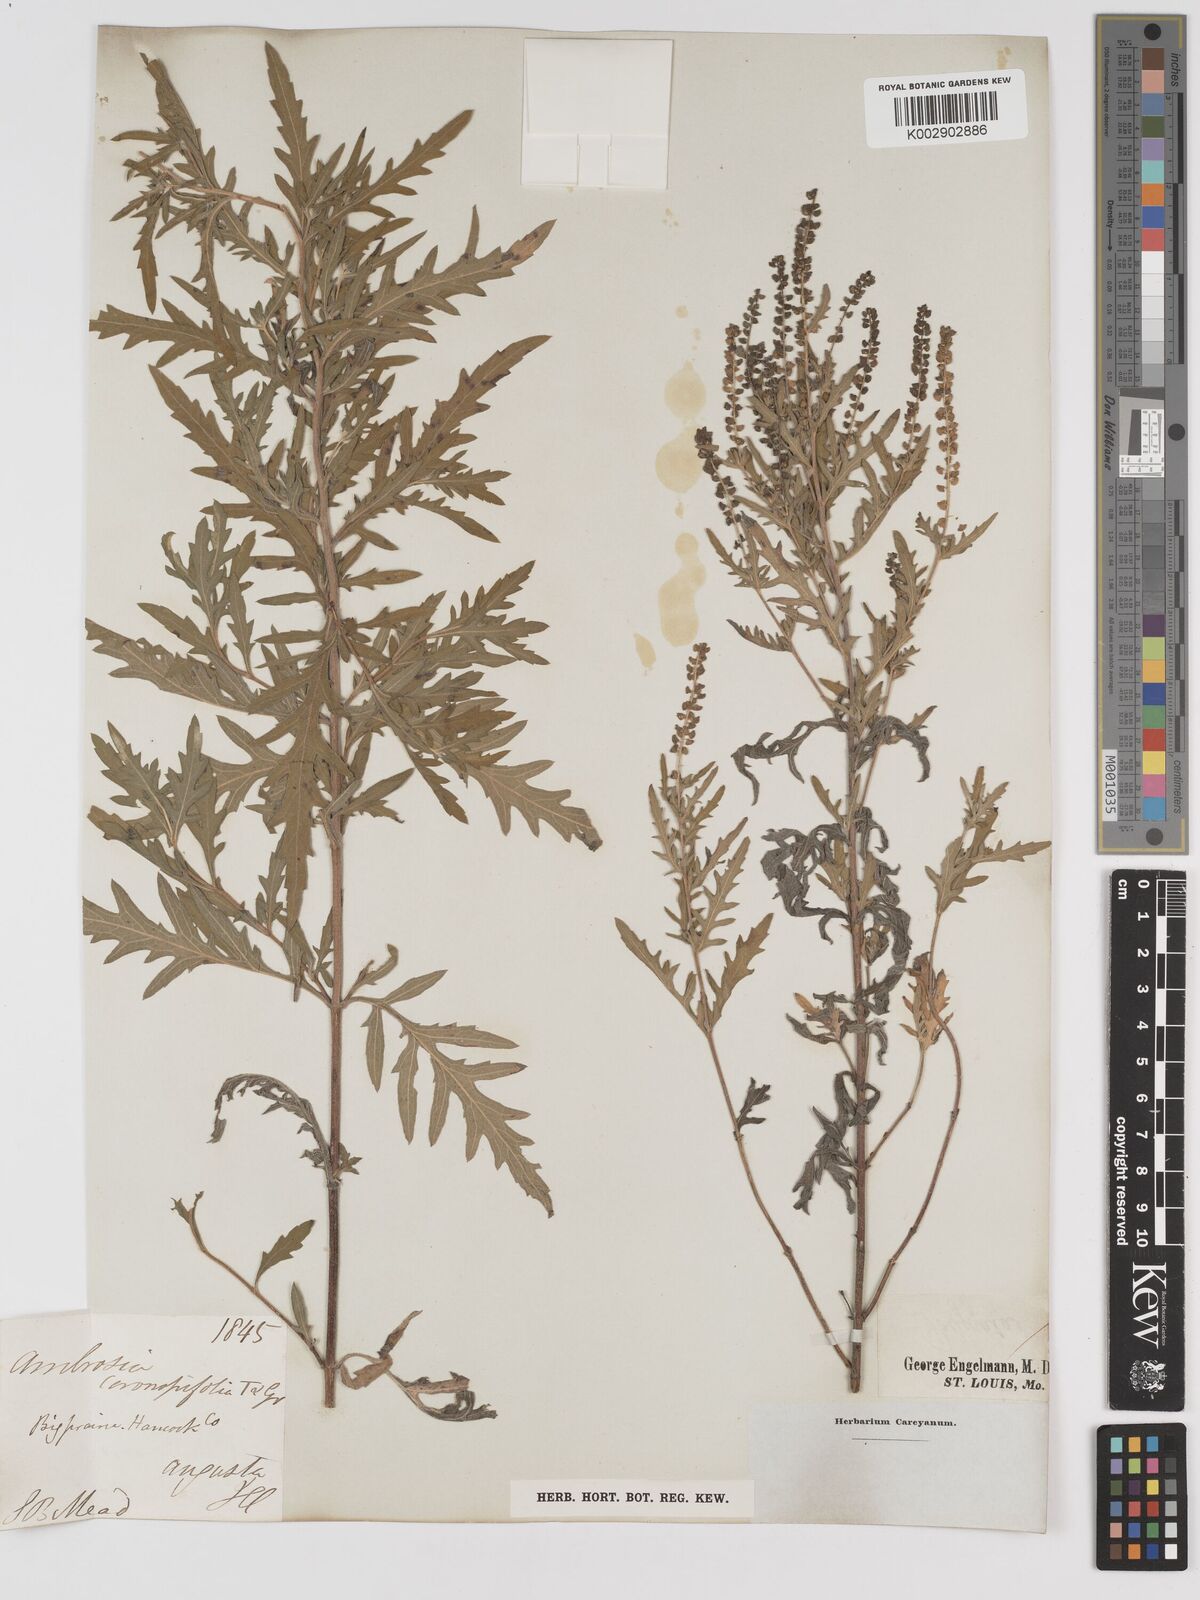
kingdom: Plantae
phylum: Tracheophyta
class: Magnoliopsida
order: Asterales
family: Asteraceae
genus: Ambrosia
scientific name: Ambrosia psilostachya
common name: Perennial ragweed
